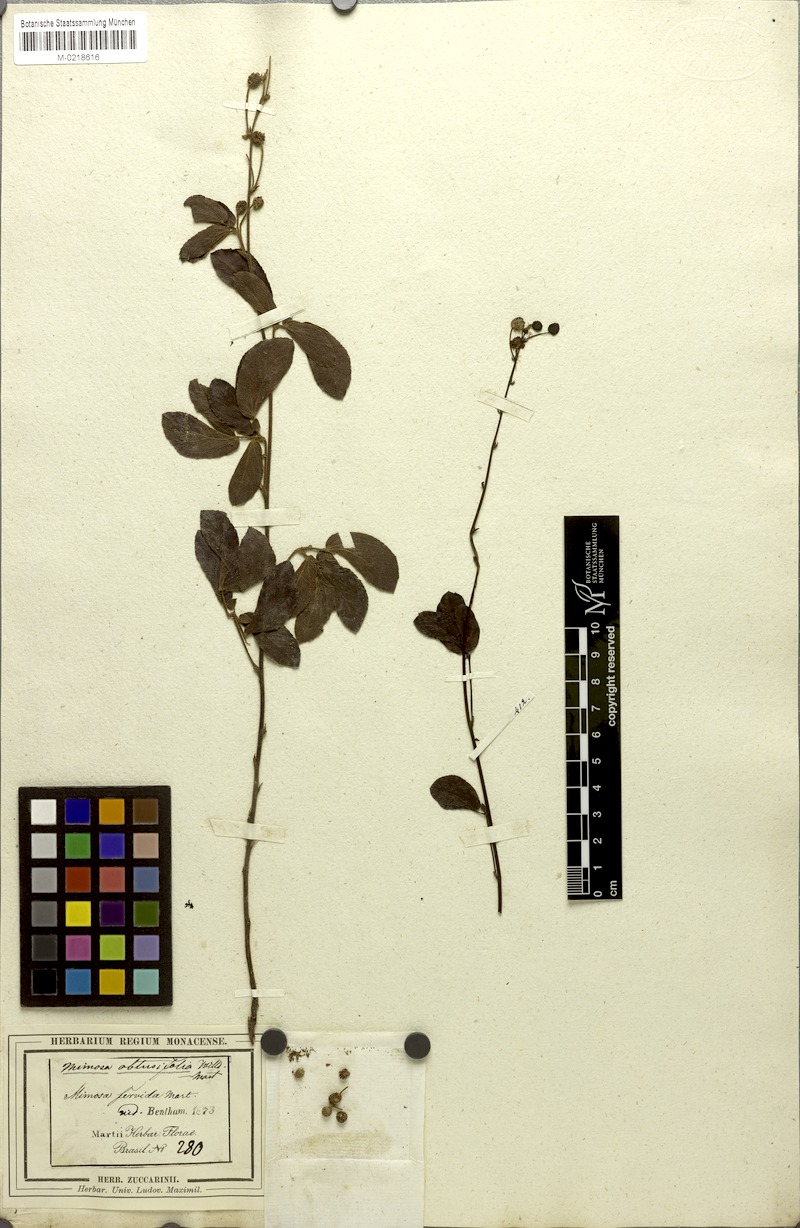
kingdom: Plantae
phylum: Tracheophyta
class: Magnoliopsida
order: Fabales
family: Fabaceae
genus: Mimosa
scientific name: Mimosa debilis
